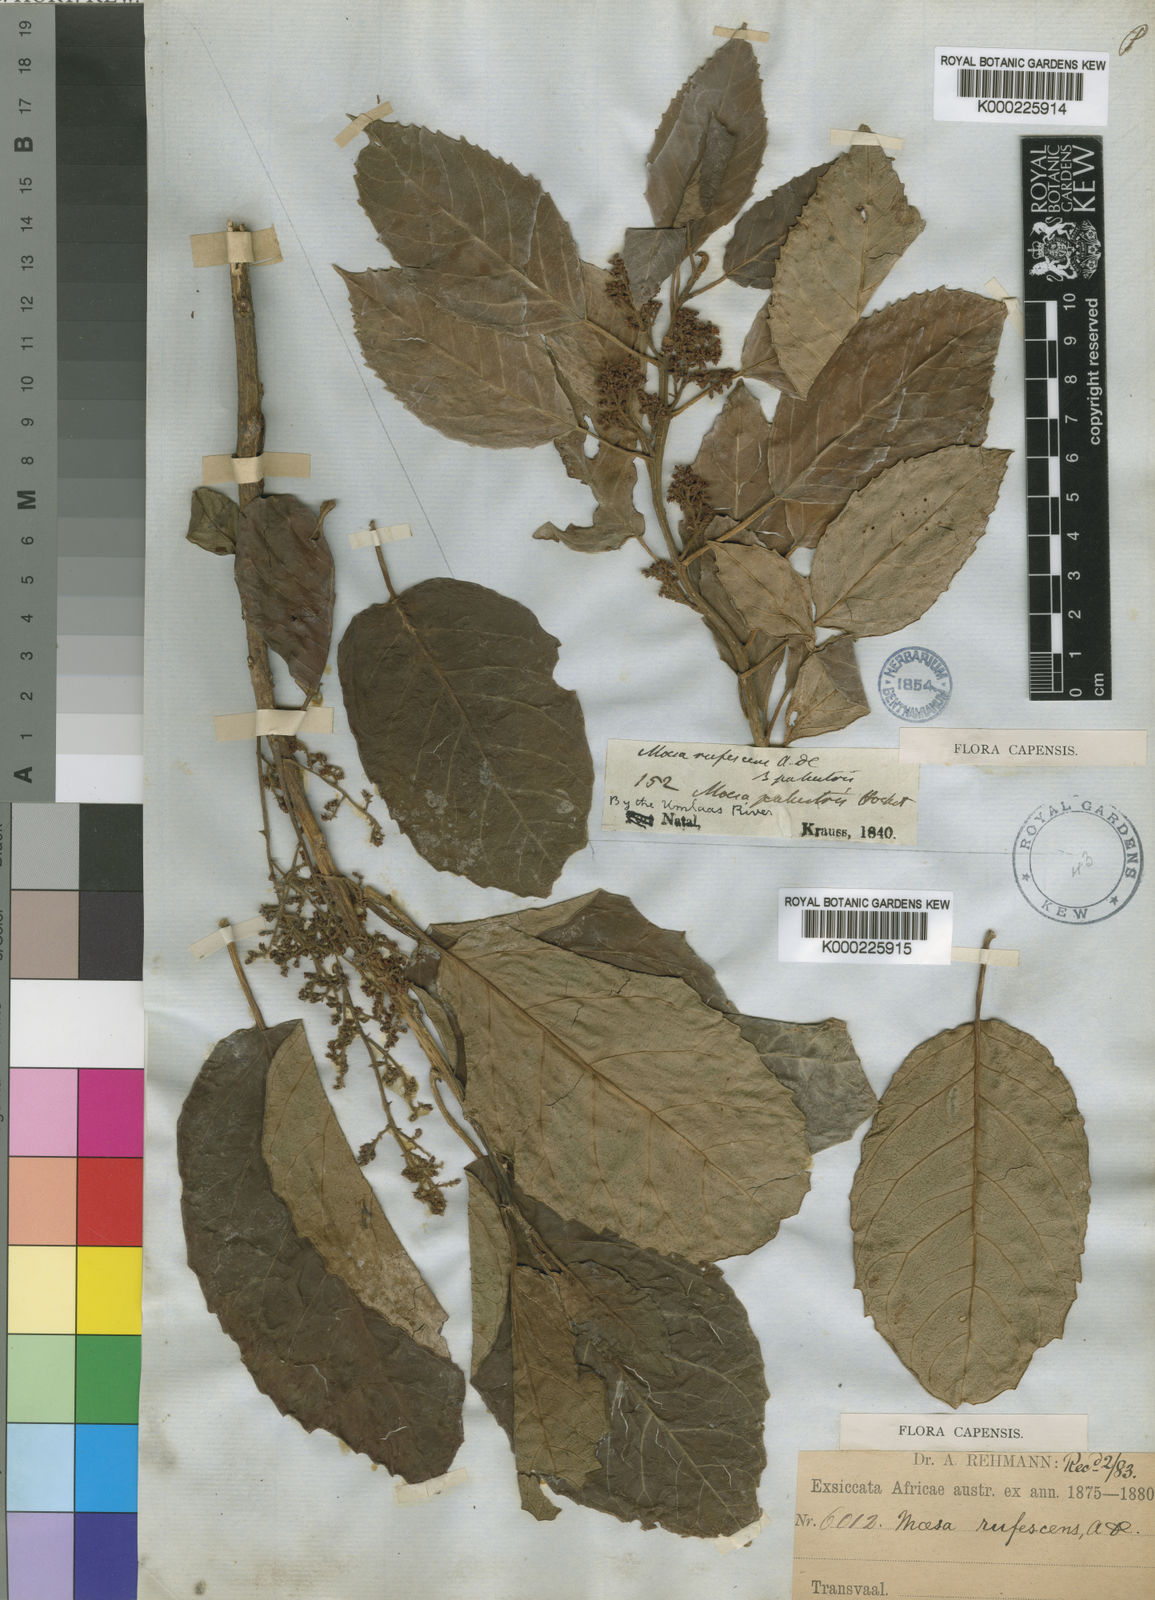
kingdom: Plantae
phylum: Tracheophyta
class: Magnoliopsida
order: Ericales
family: Primulaceae
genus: Maesa
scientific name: Maesa lanceolata
